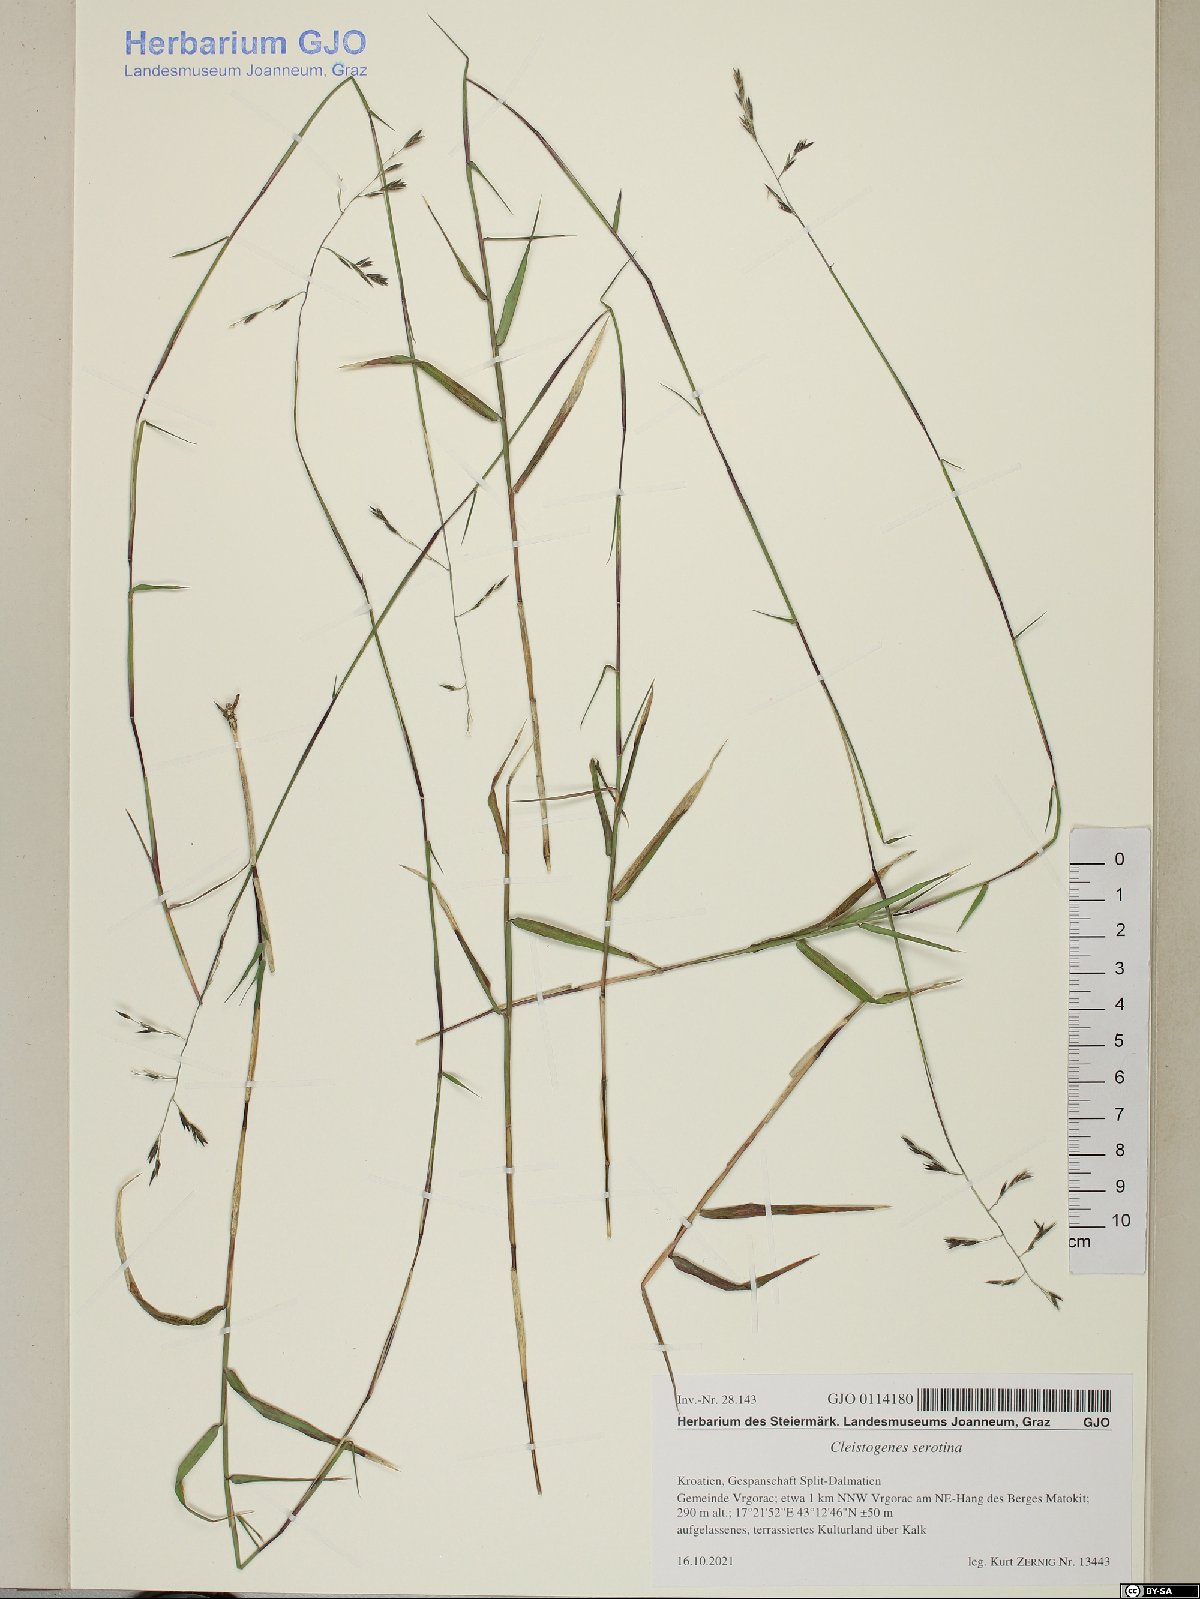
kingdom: Plantae
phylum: Tracheophyta
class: Liliopsida
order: Poales
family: Poaceae
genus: Cleistogenes
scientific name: Cleistogenes serotina
